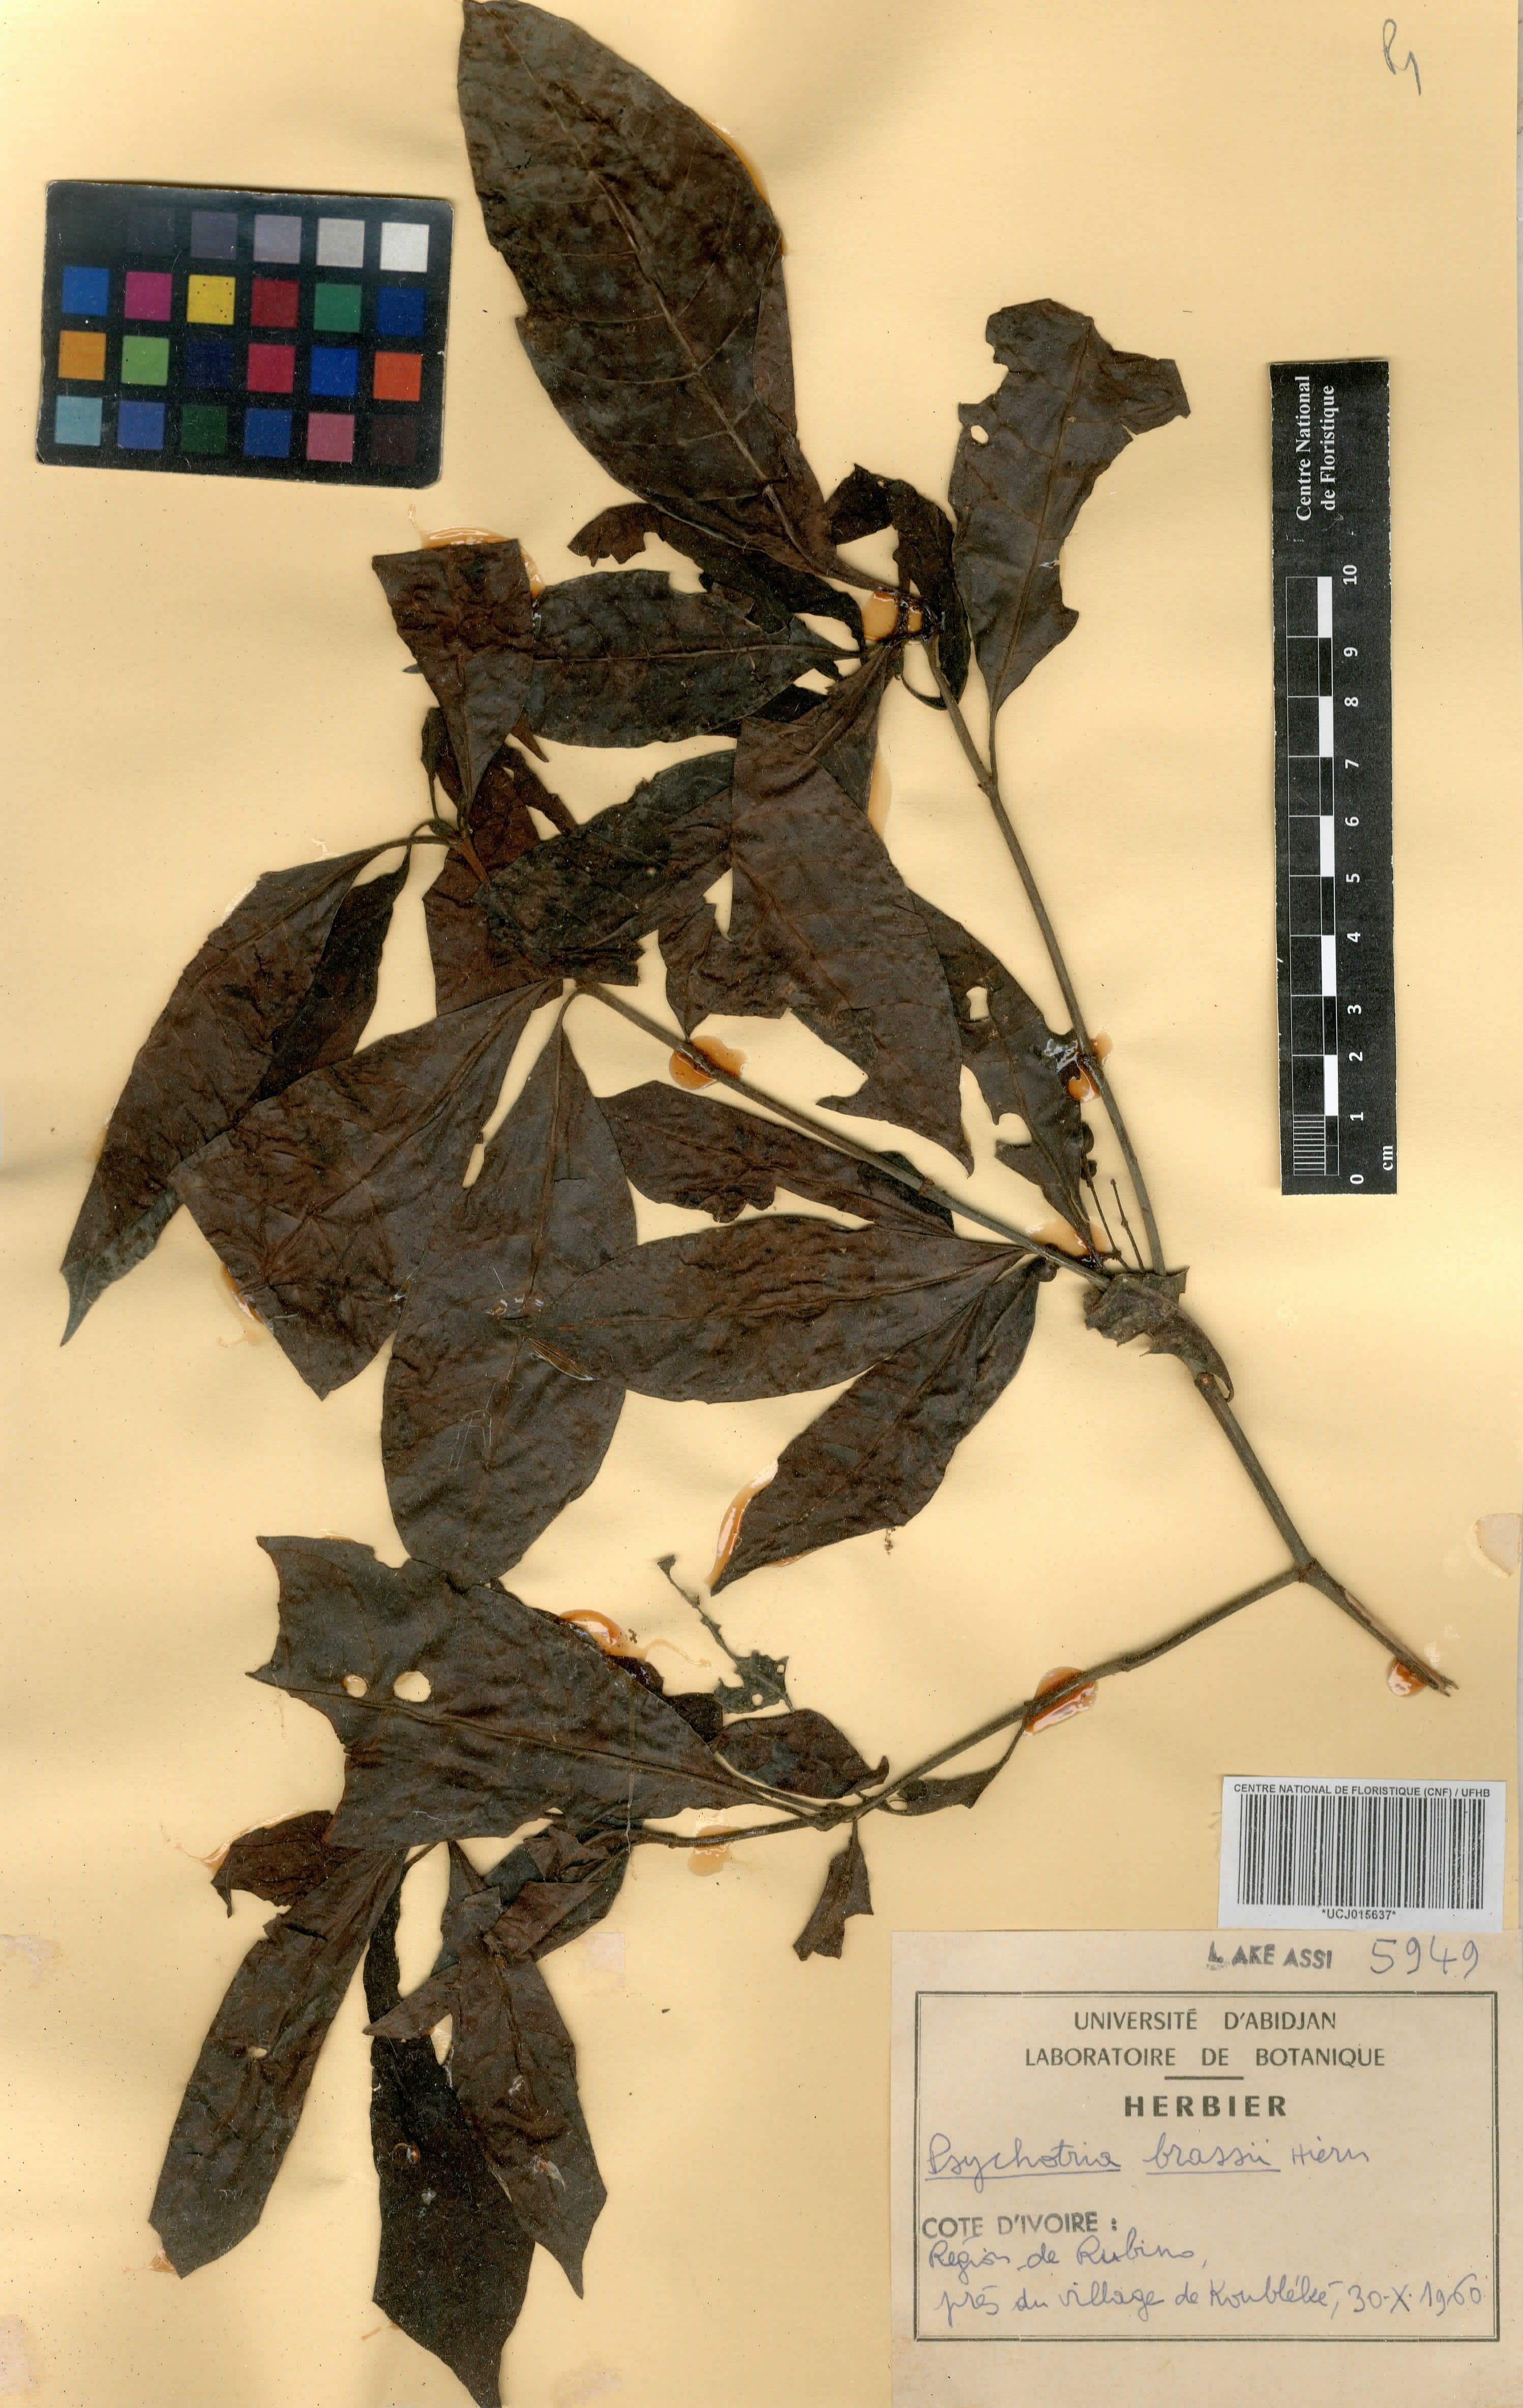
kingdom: Plantae
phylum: Tracheophyta
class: Magnoliopsida
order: Gentianales
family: Rubiaceae
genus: Psychotria
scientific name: Psychotria brassii
